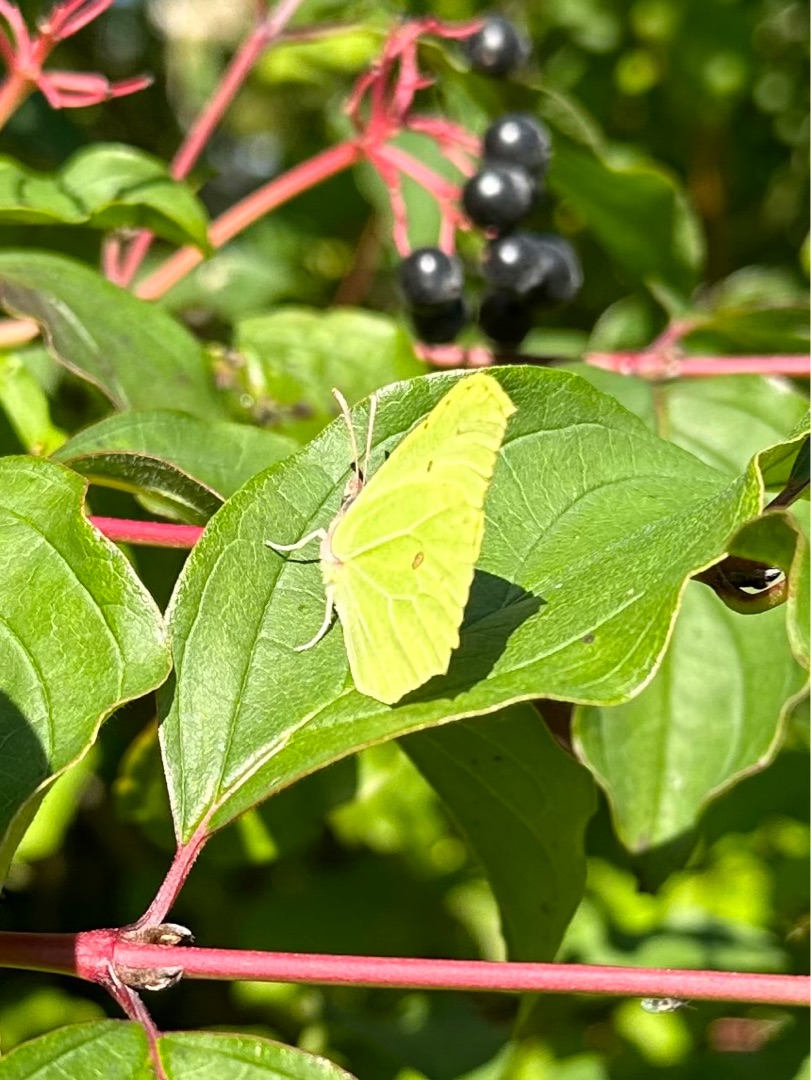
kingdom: Animalia
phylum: Arthropoda
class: Insecta
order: Lepidoptera
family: Pieridae
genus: Gonepteryx
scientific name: Gonepteryx rhamni
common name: Citronsommerfugl
